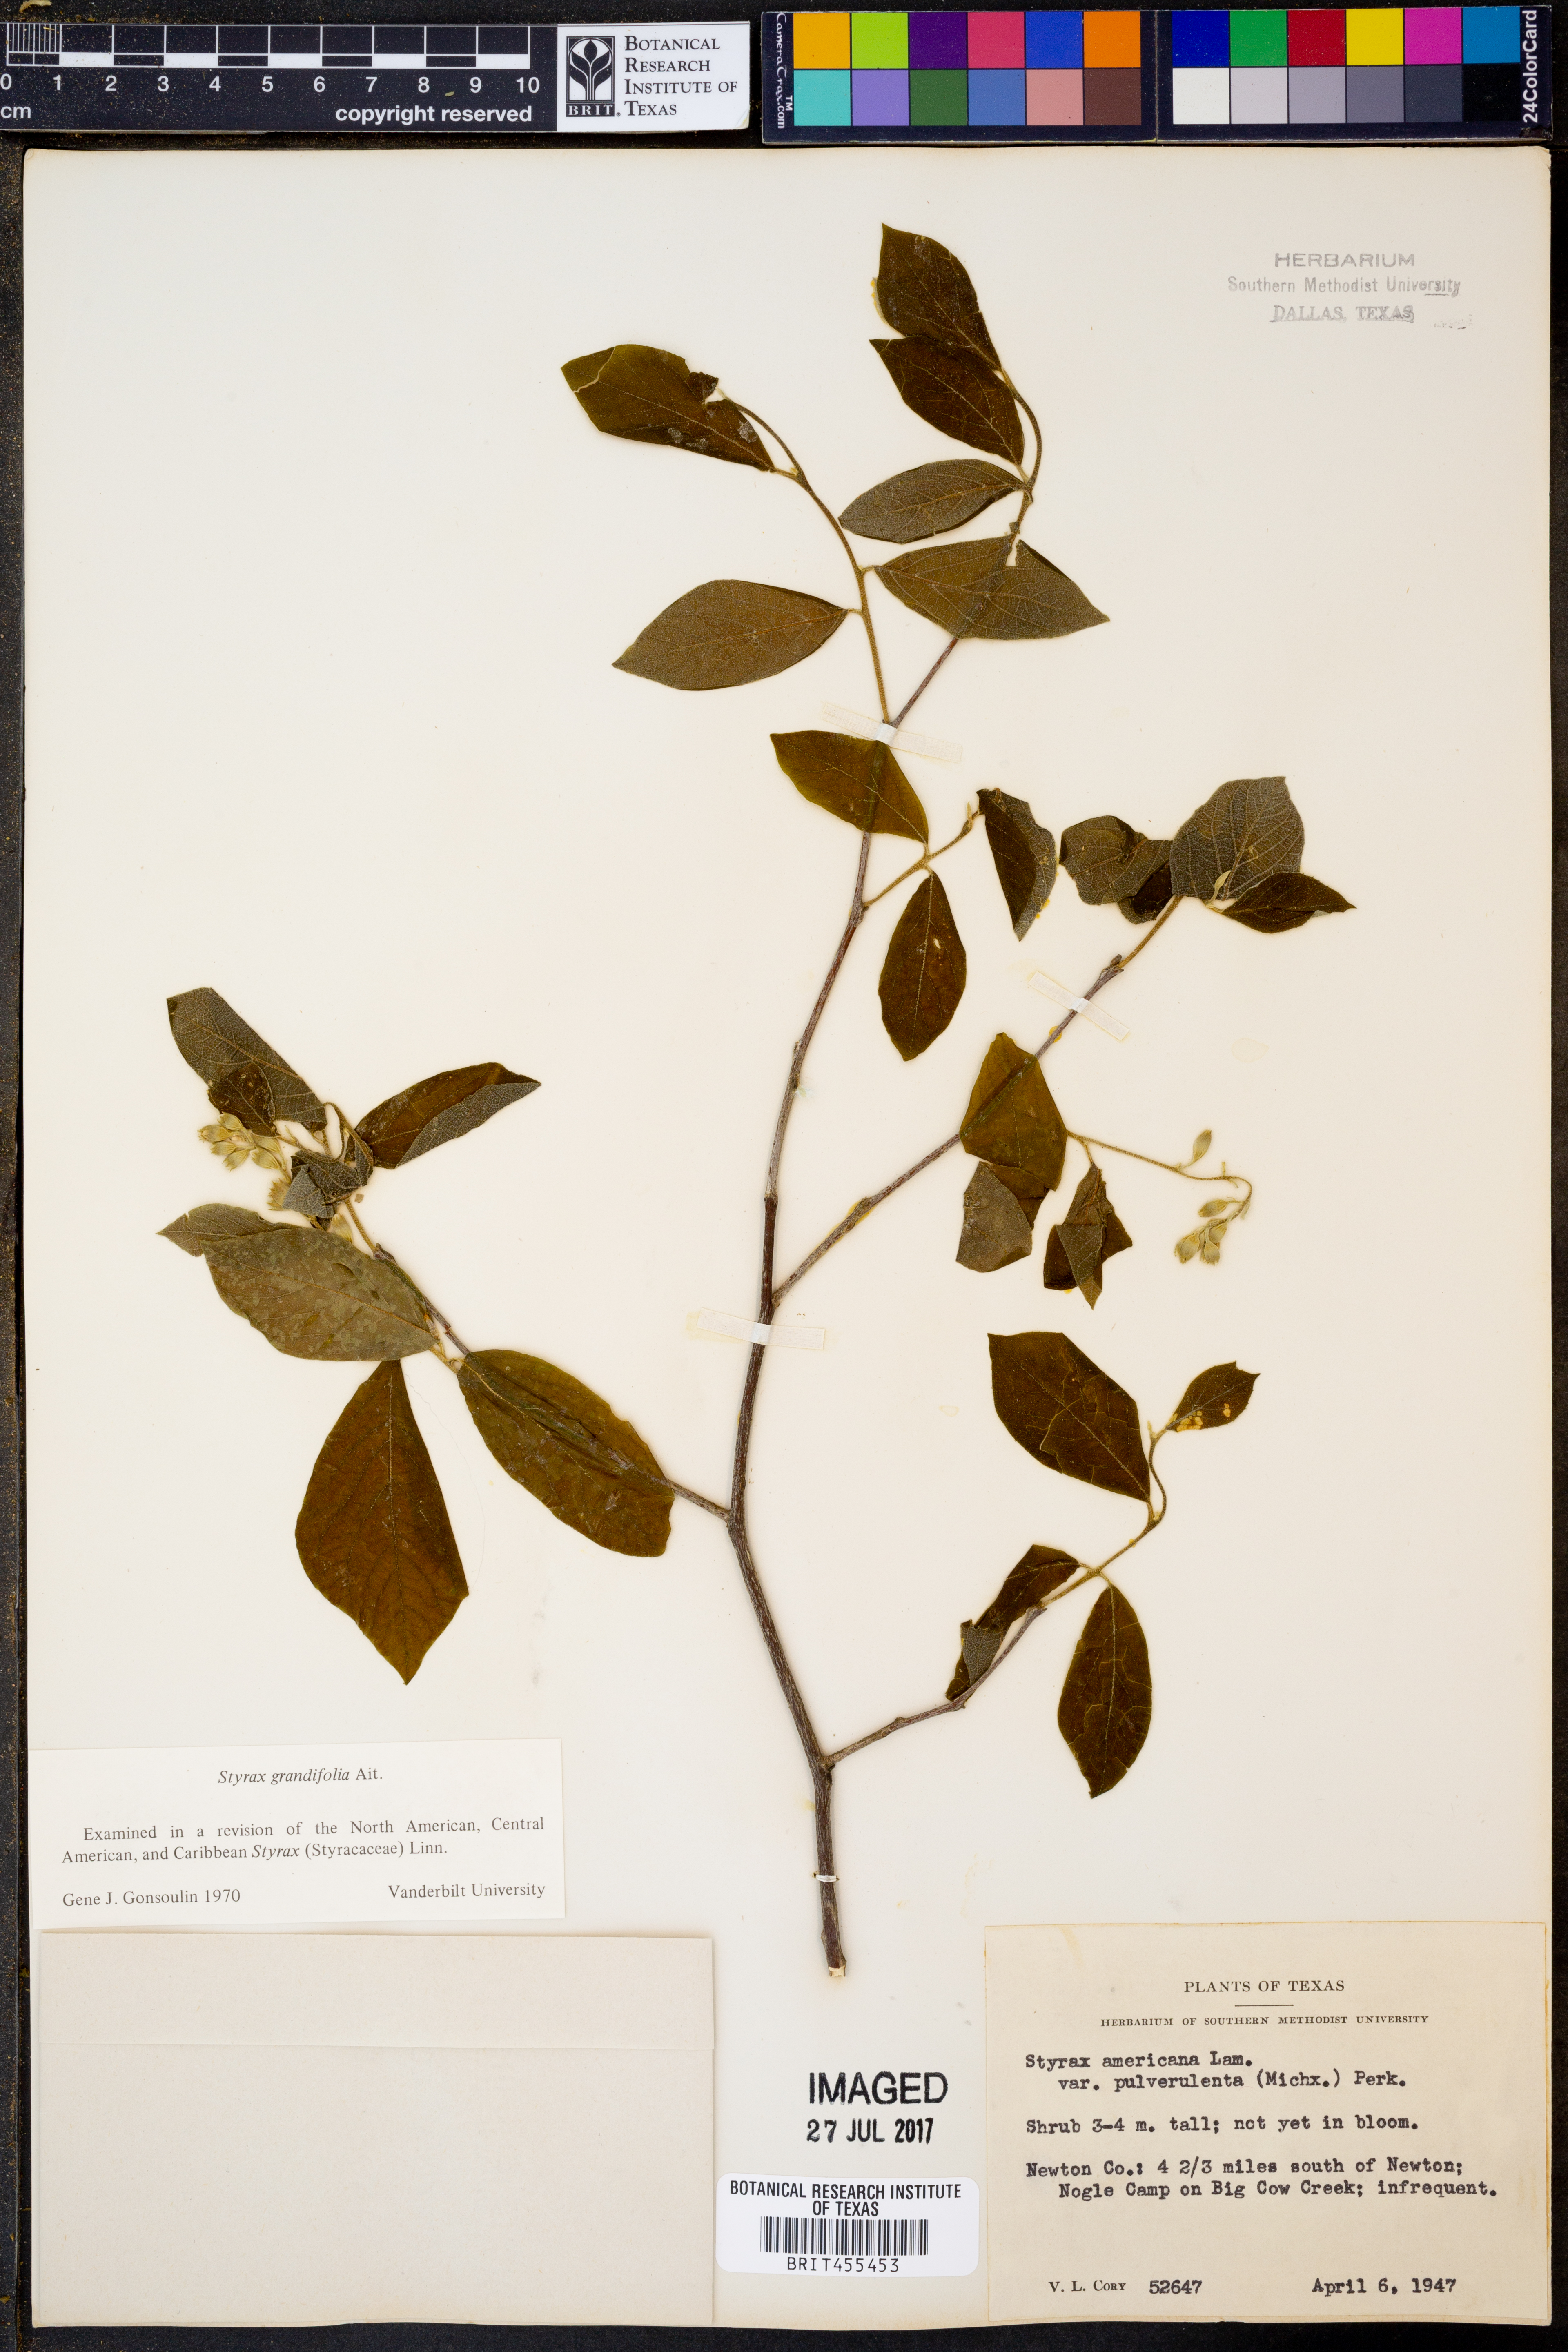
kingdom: Plantae
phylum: Tracheophyta
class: Magnoliopsida
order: Ericales
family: Styracaceae
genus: Styrax
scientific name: Styrax americanus
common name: American snowbell
